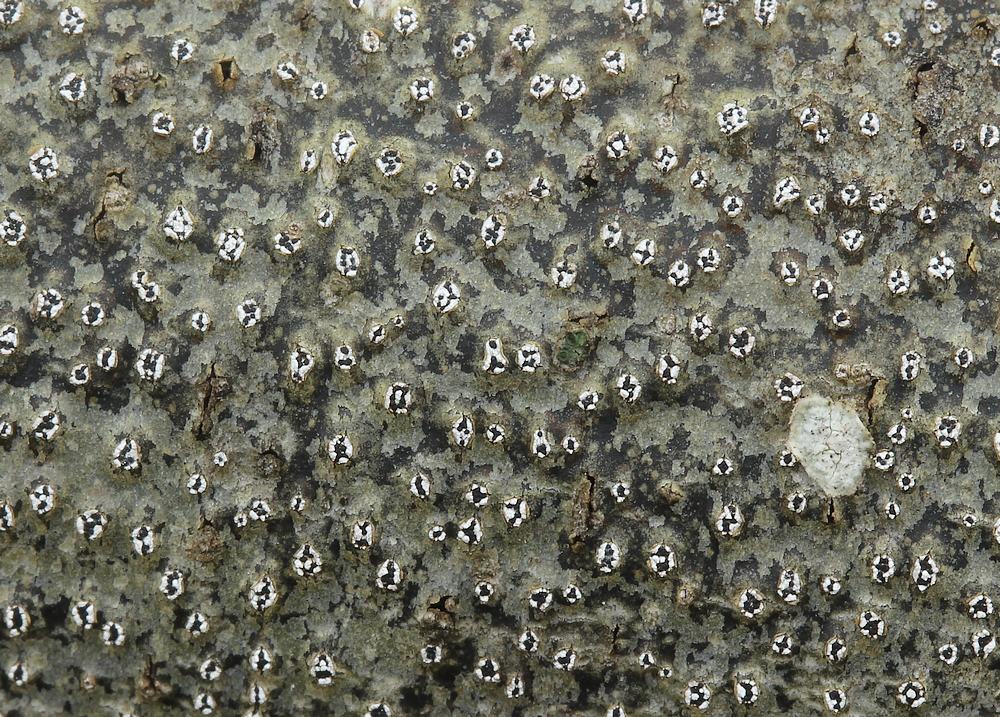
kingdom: Fungi
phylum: Ascomycota
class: Sordariomycetes
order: Diaporthales
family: Valsaceae
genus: Cytospora
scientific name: Cytospora nivea
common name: hvidskivet kulknippe
